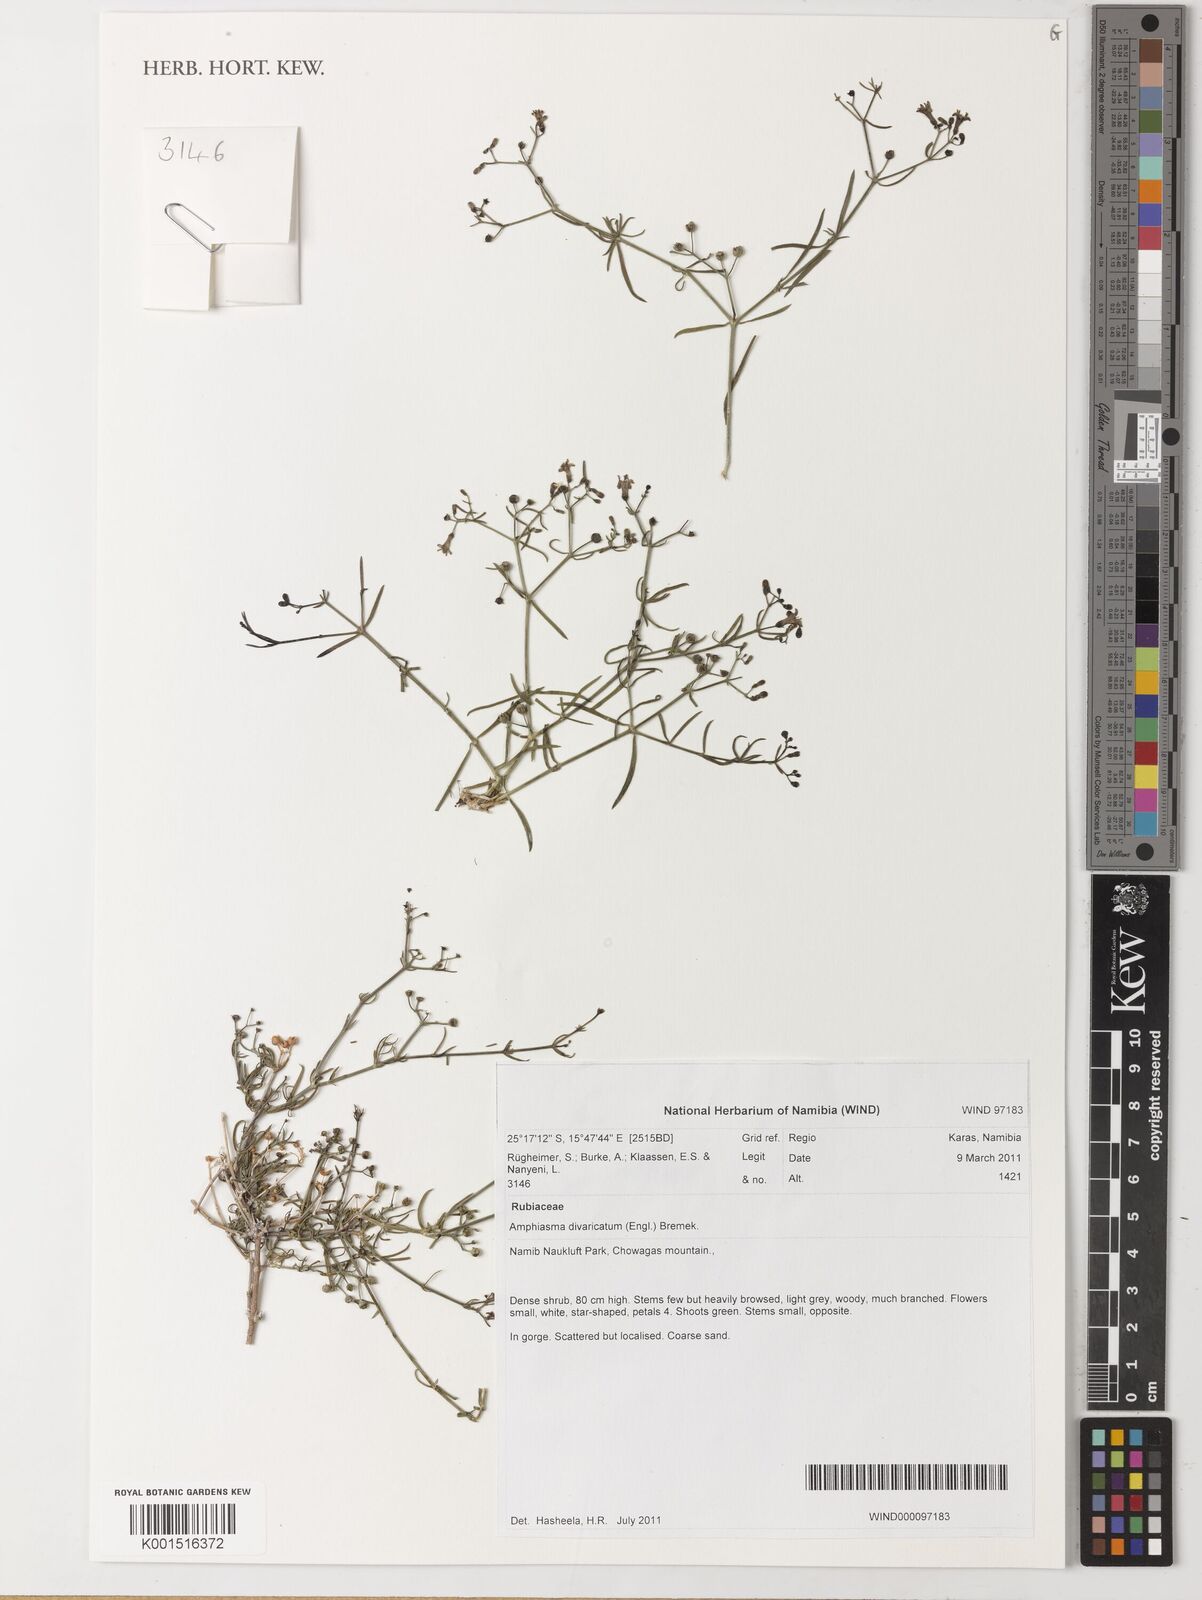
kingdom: Plantae
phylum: Tracheophyta
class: Magnoliopsida
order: Gentianales
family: Rubiaceae
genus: Amphiasma
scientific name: Amphiasma divaricatum
